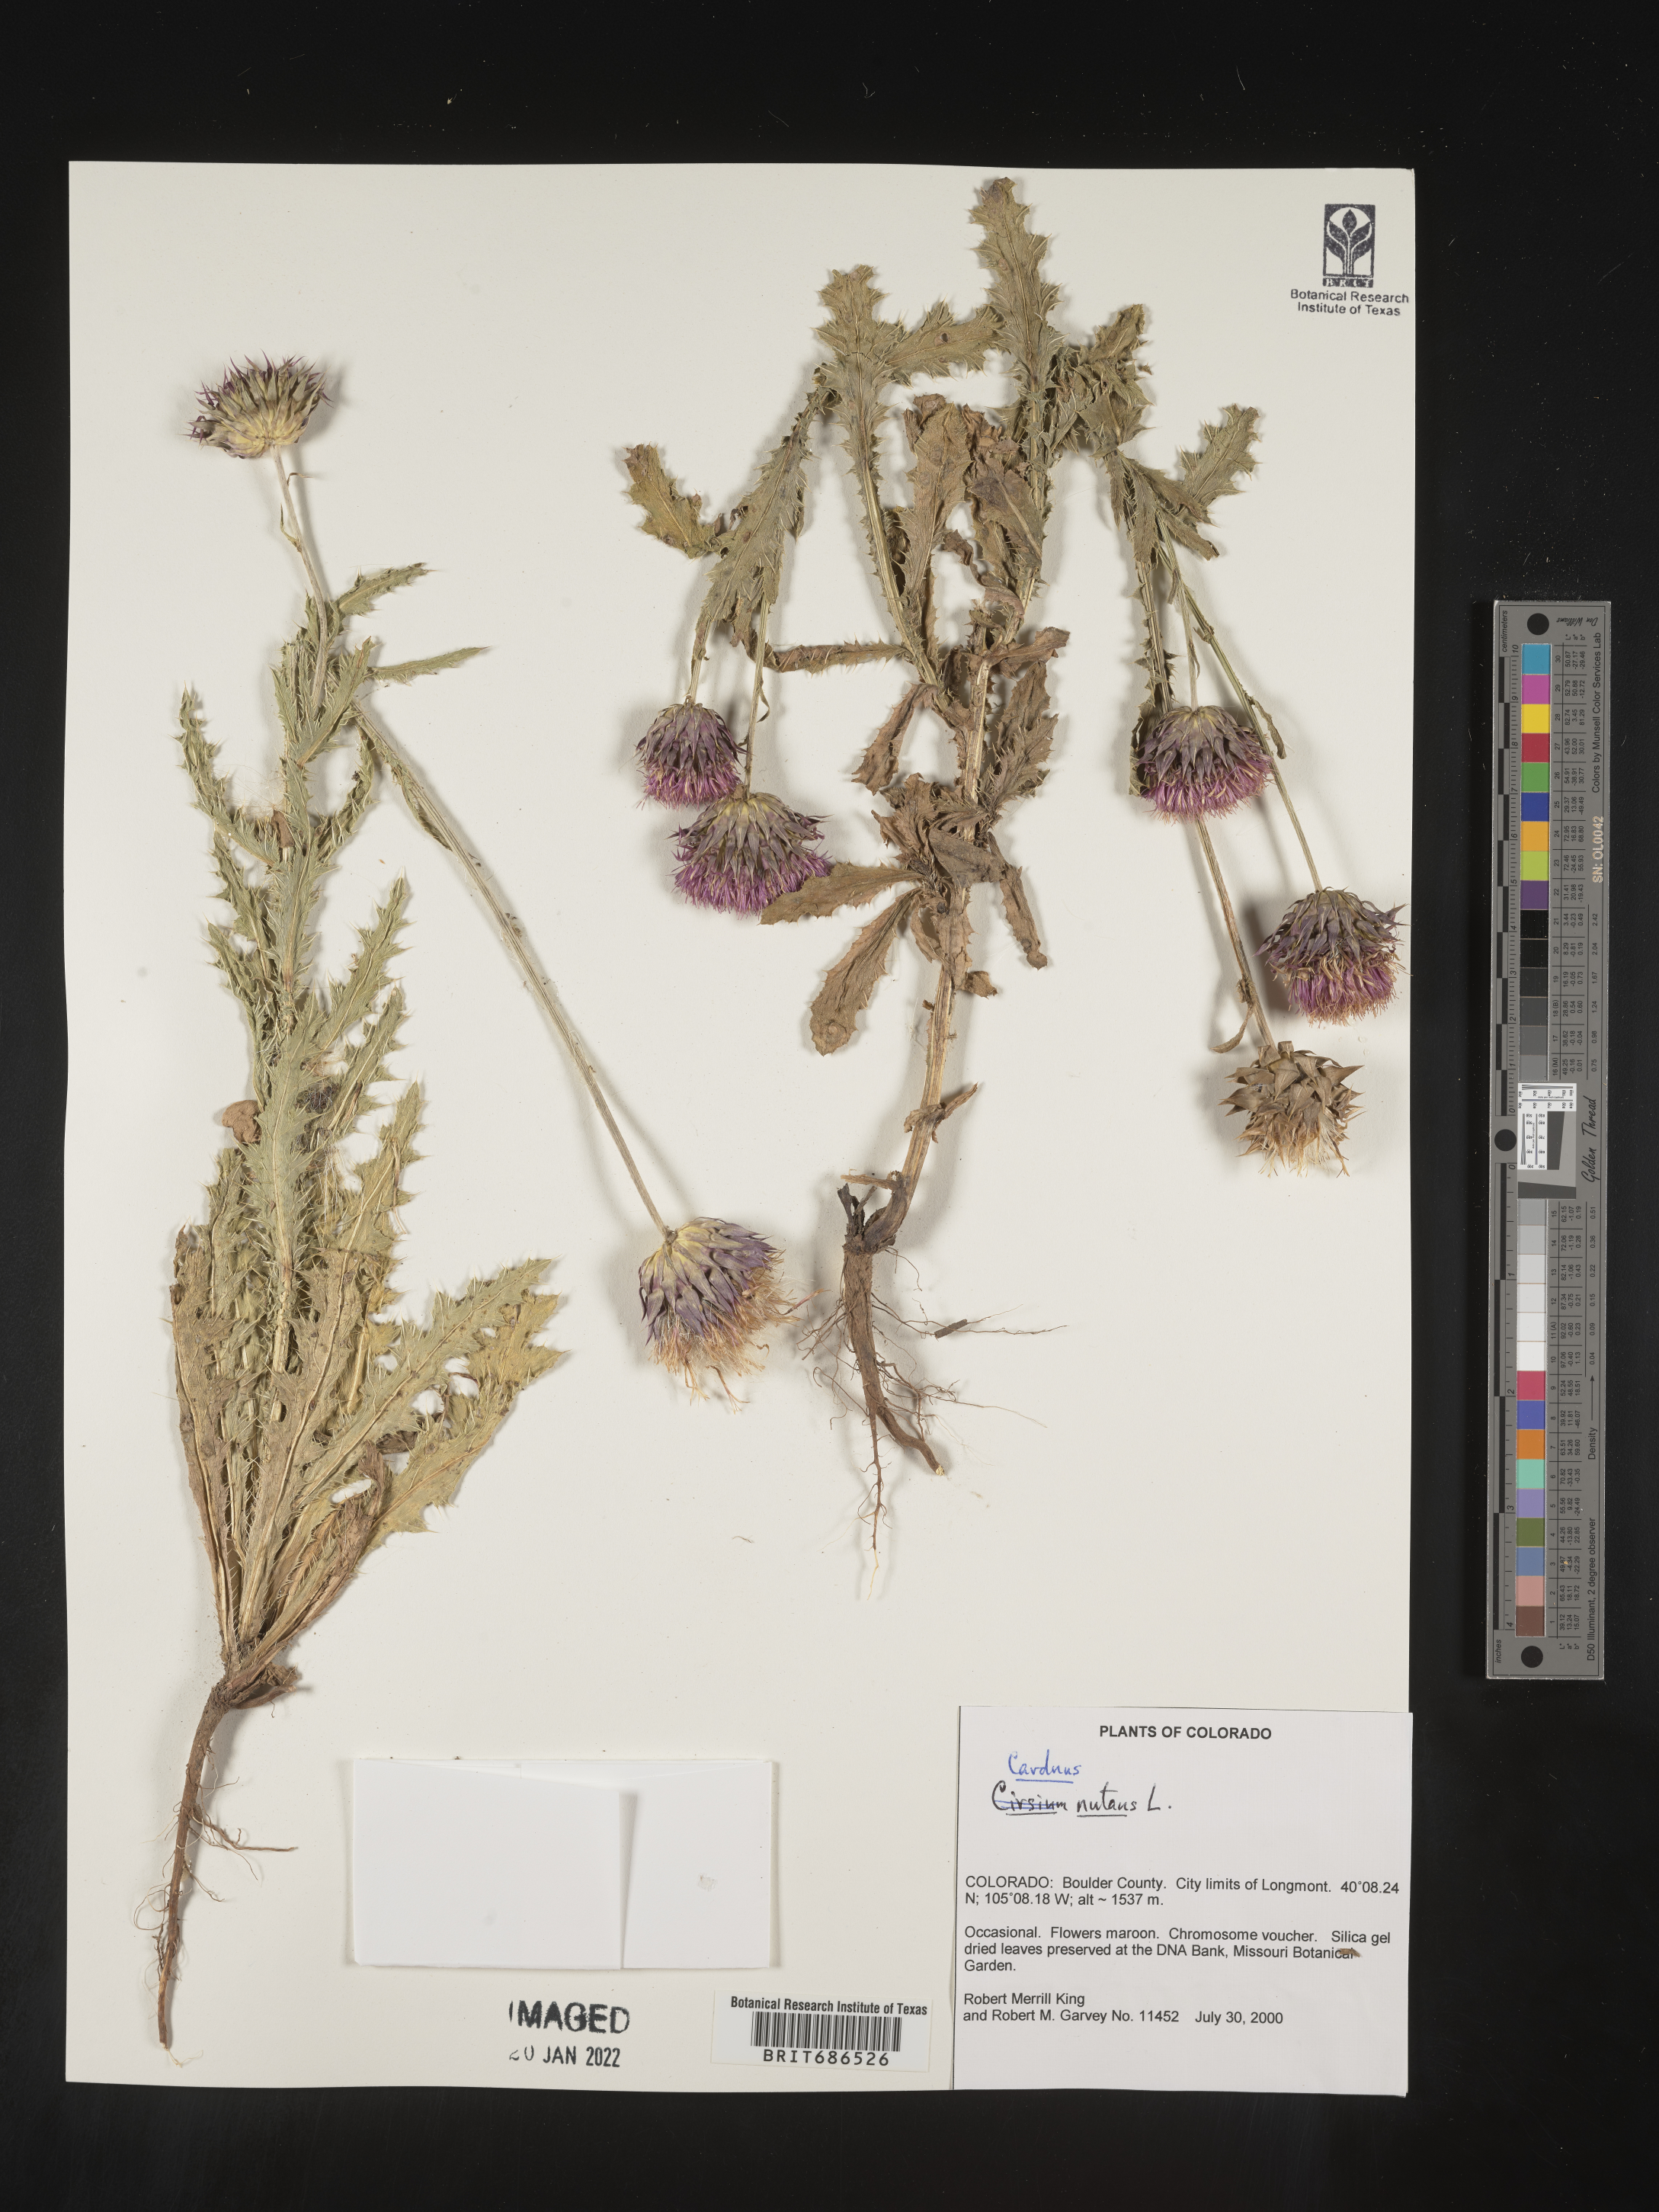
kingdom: Plantae
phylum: Tracheophyta
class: Magnoliopsida
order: Asterales
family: Asteraceae
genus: Carduus
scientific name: Carduus nutans
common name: Musk thistle
